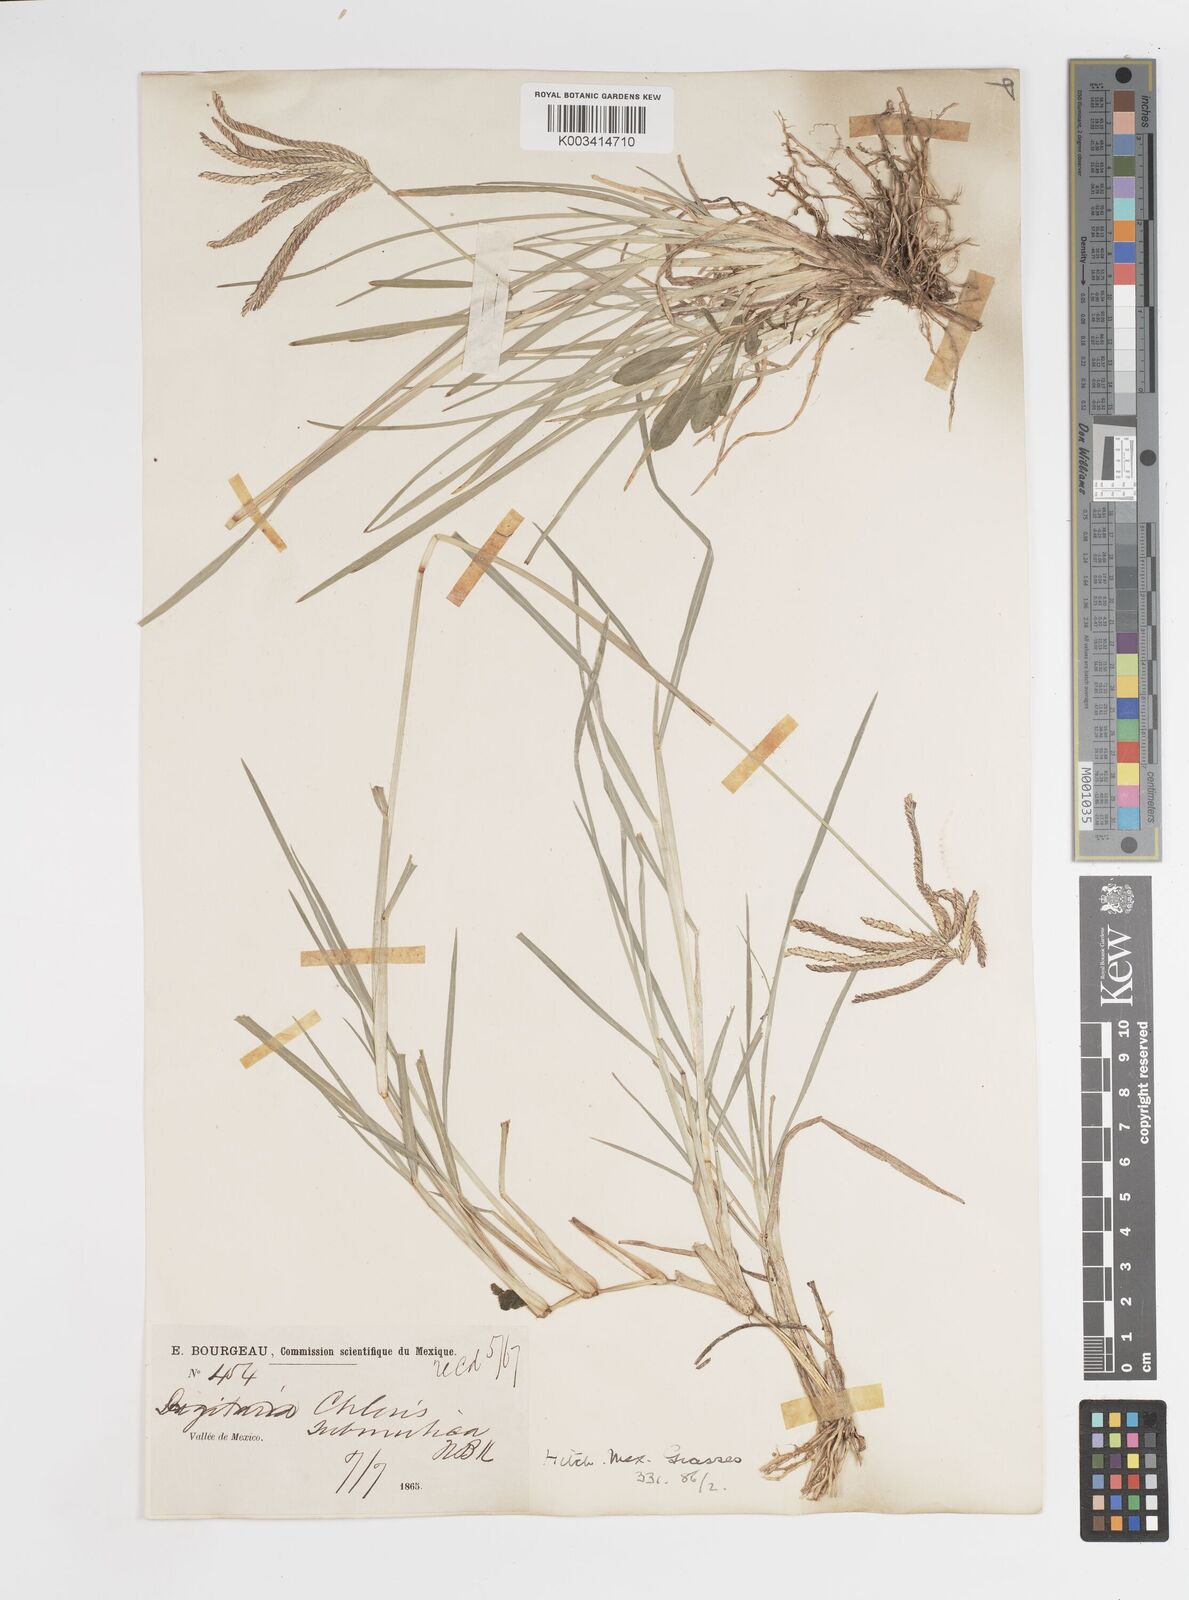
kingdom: Plantae
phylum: Tracheophyta
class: Liliopsida
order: Poales
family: Poaceae
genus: Chloris
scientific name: Chloris submutica
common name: Mexican windmill grass
